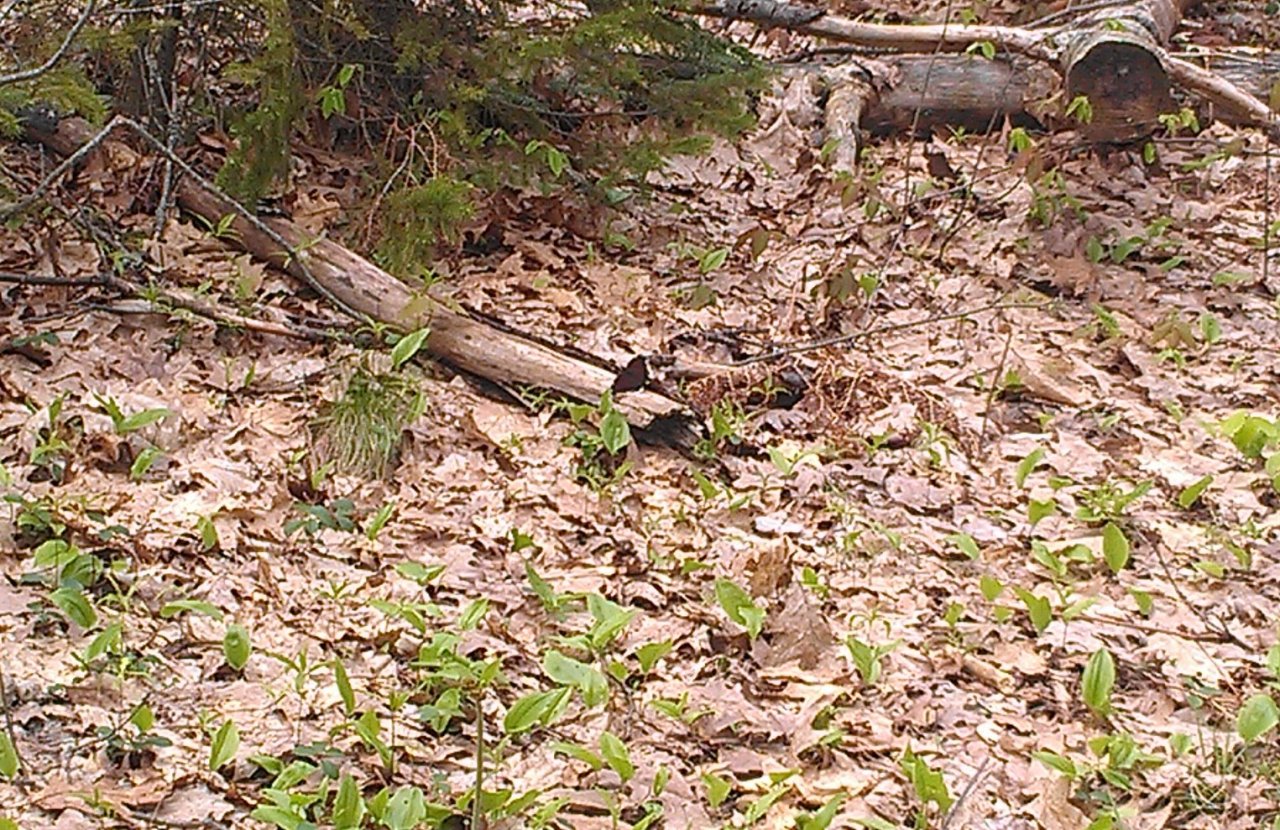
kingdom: Animalia
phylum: Arthropoda
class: Insecta
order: Lepidoptera
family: Nymphalidae
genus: Nymphalis
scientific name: Nymphalis antiopa
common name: Mourning Cloak
